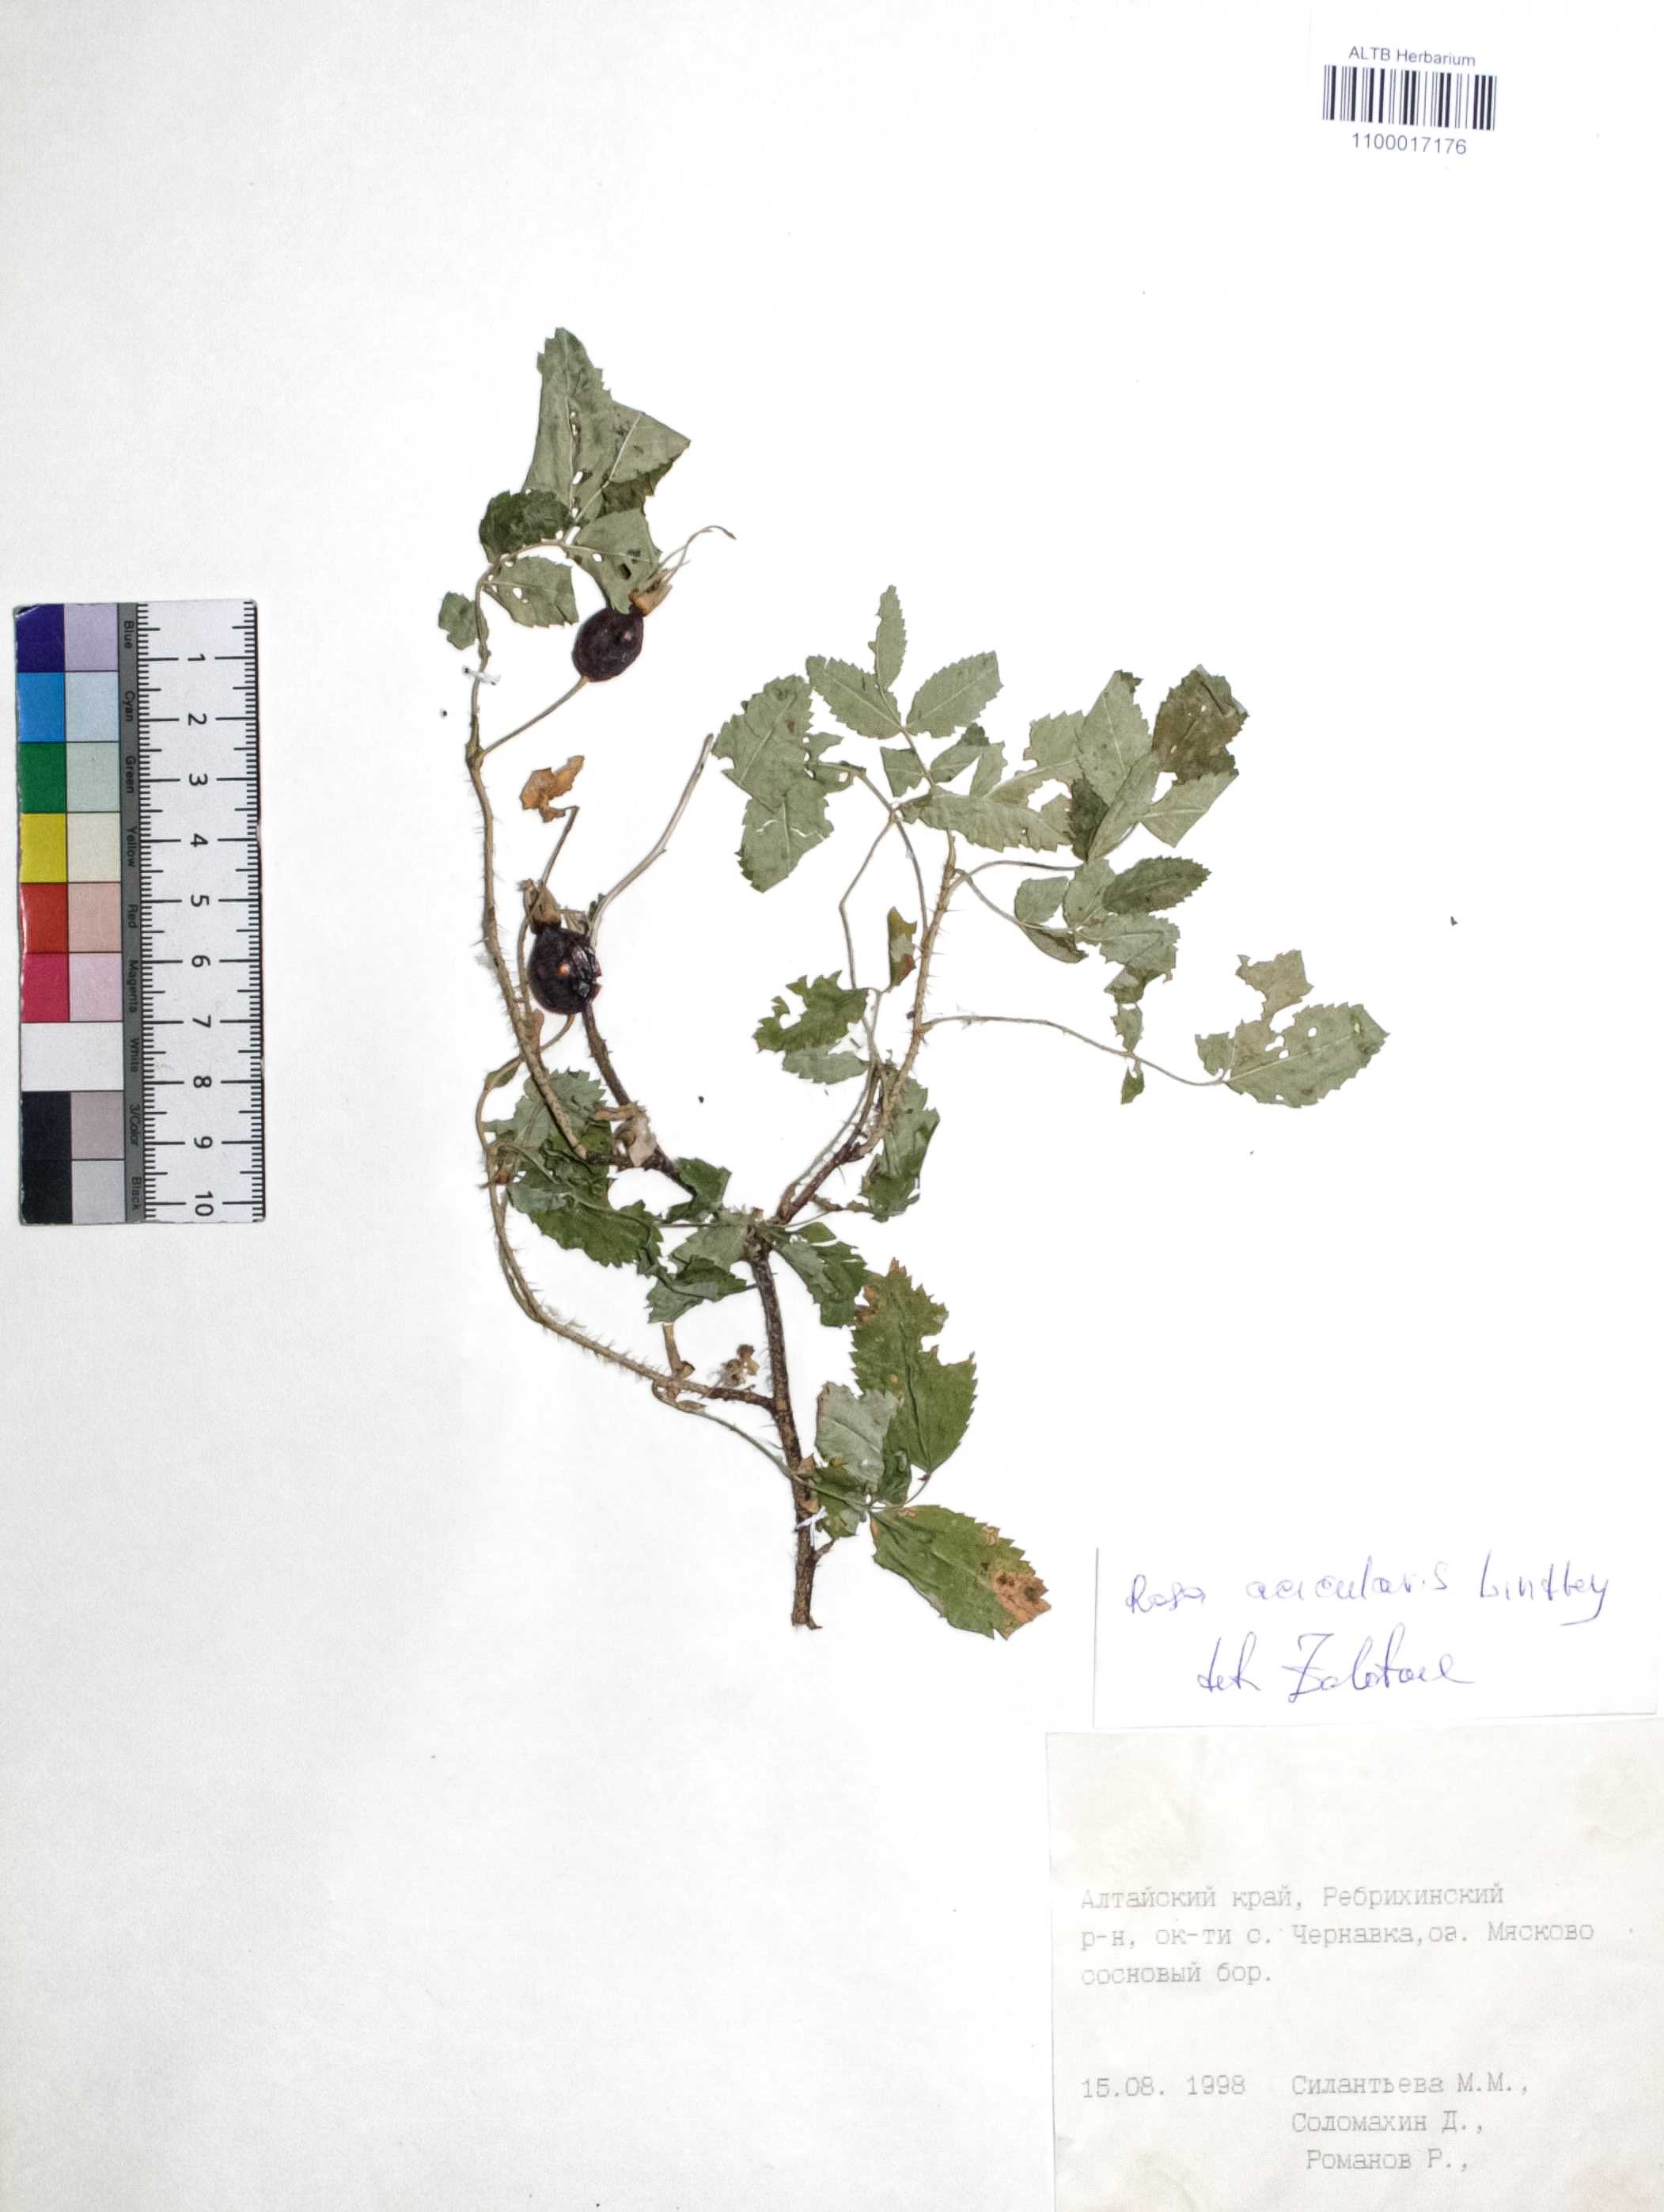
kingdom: Plantae
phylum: Tracheophyta
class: Magnoliopsida
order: Rosales
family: Rosaceae
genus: Rosa
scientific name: Rosa acicularis
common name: Prickly rose
